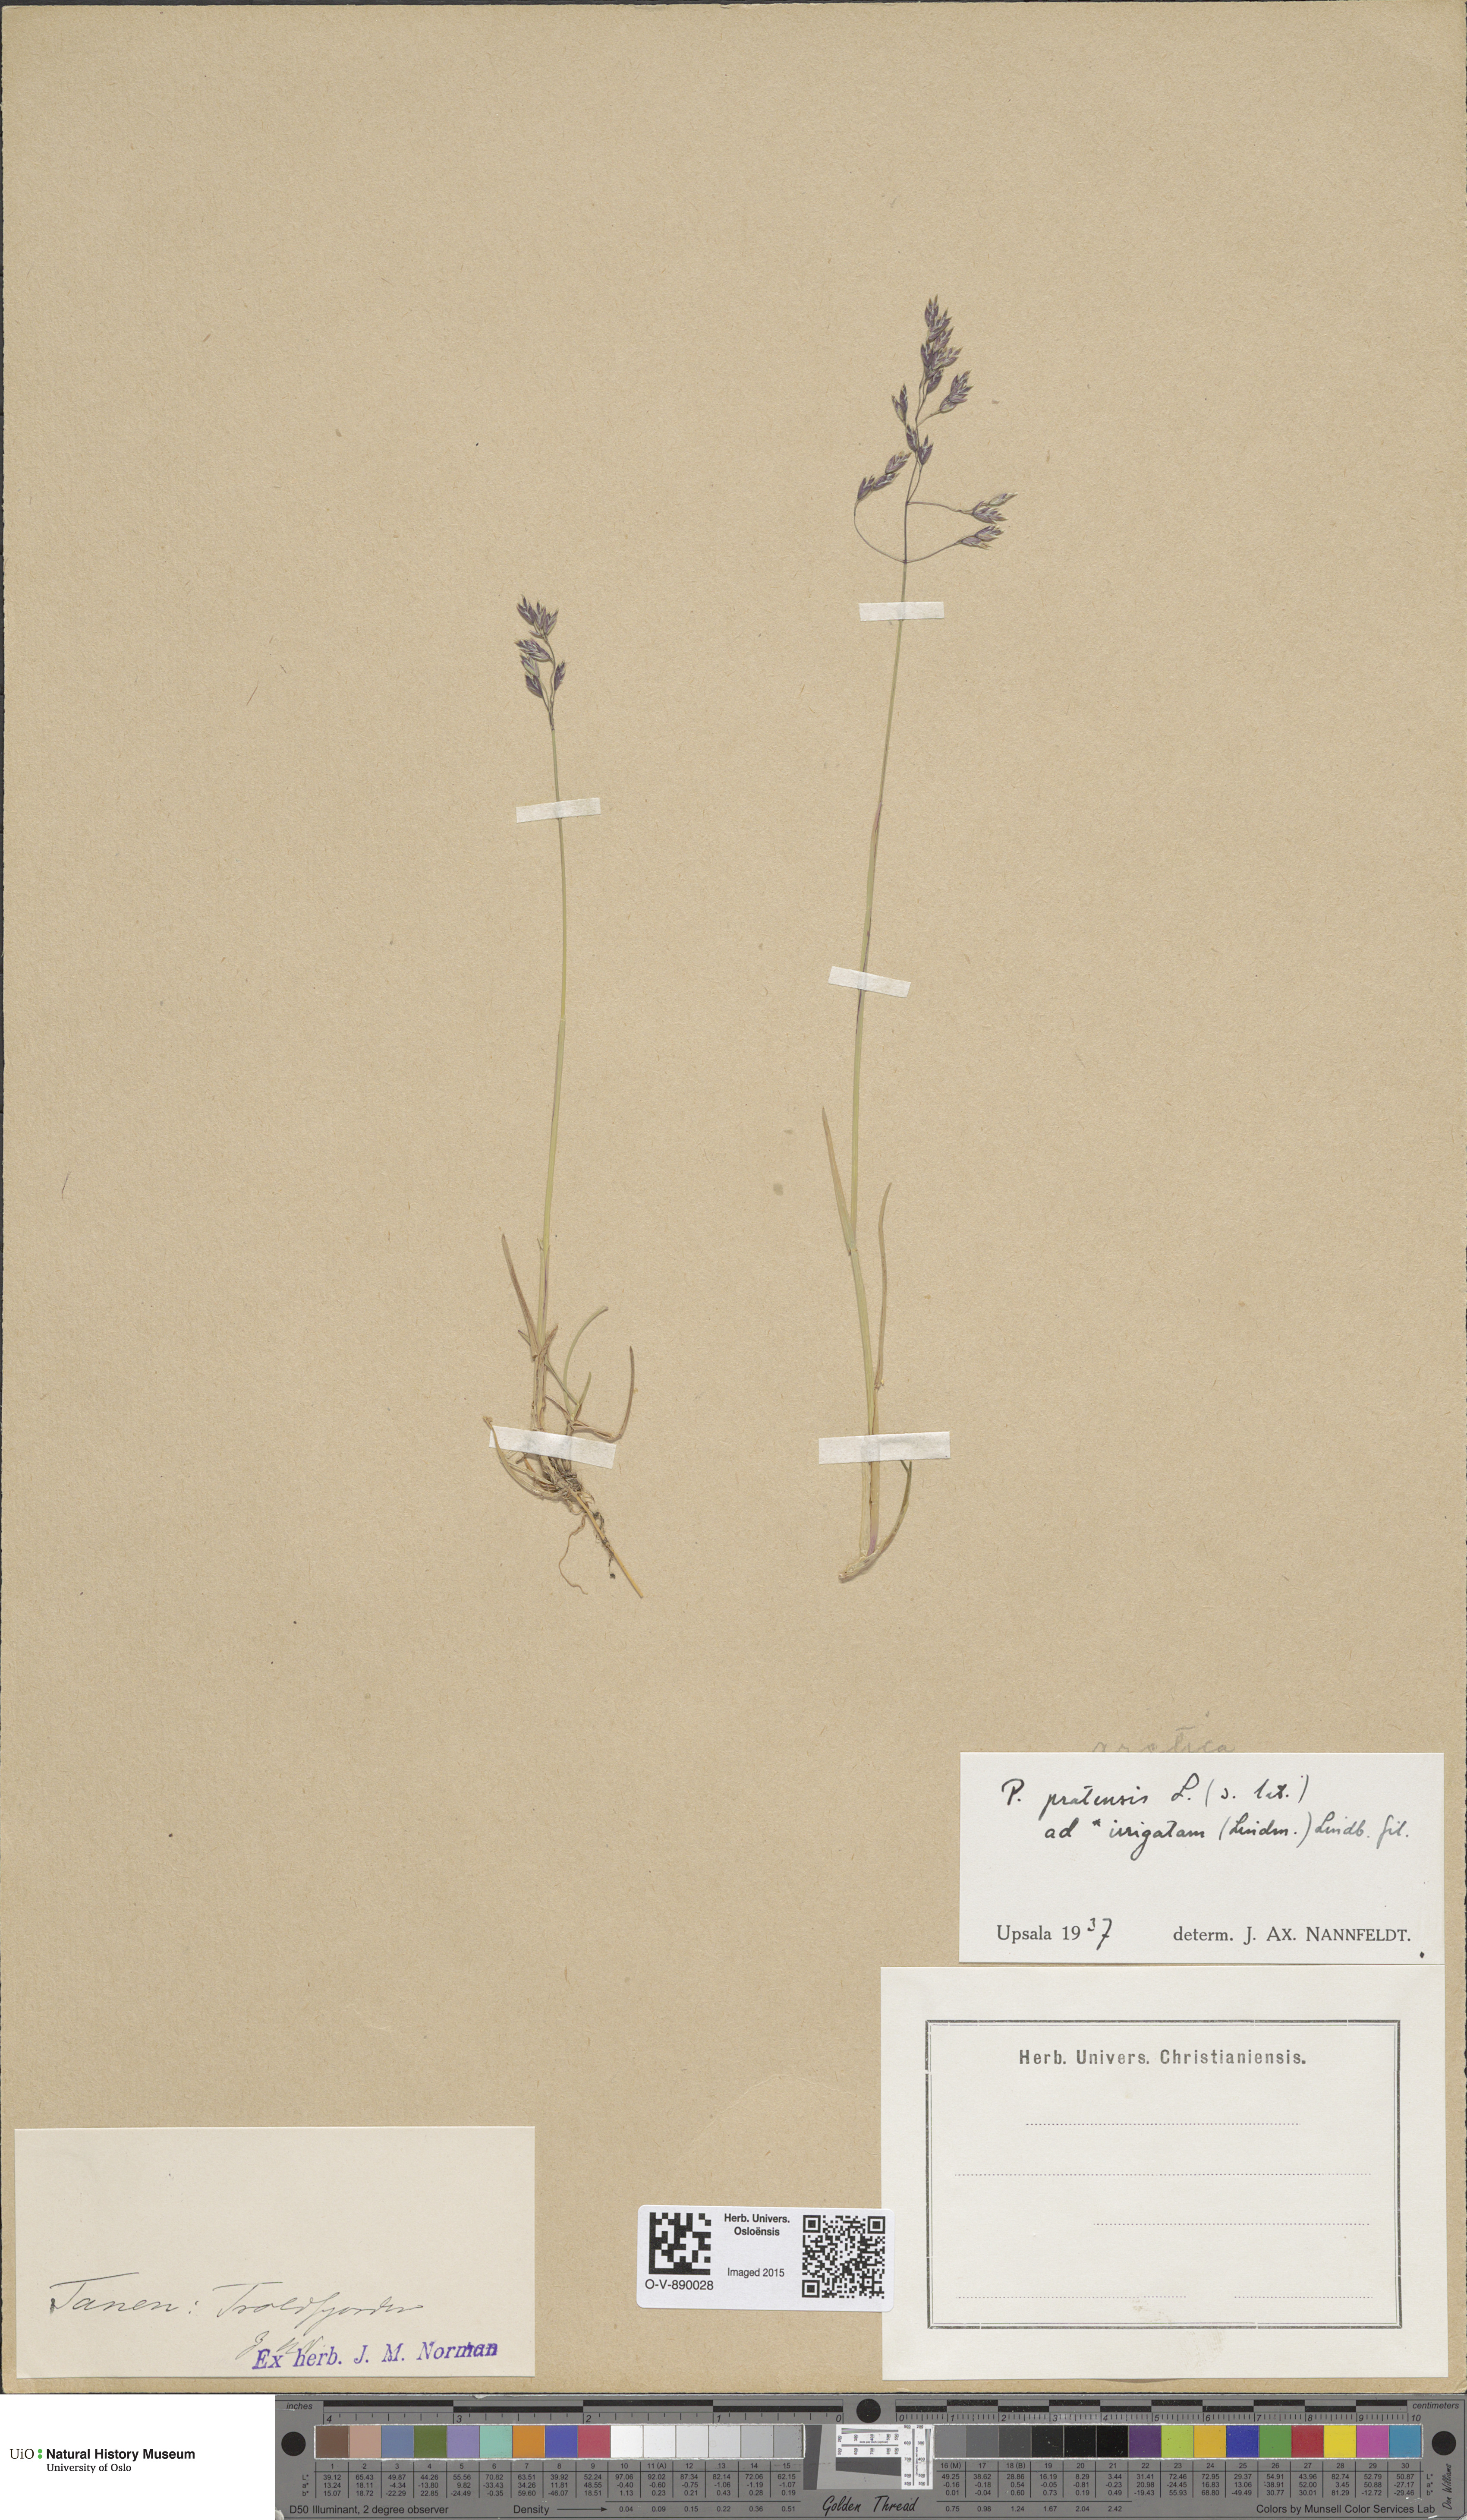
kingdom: Plantae
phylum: Tracheophyta
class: Liliopsida
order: Poales
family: Poaceae
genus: Poa
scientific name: Poa humilis
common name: Spreading meadow-grass
